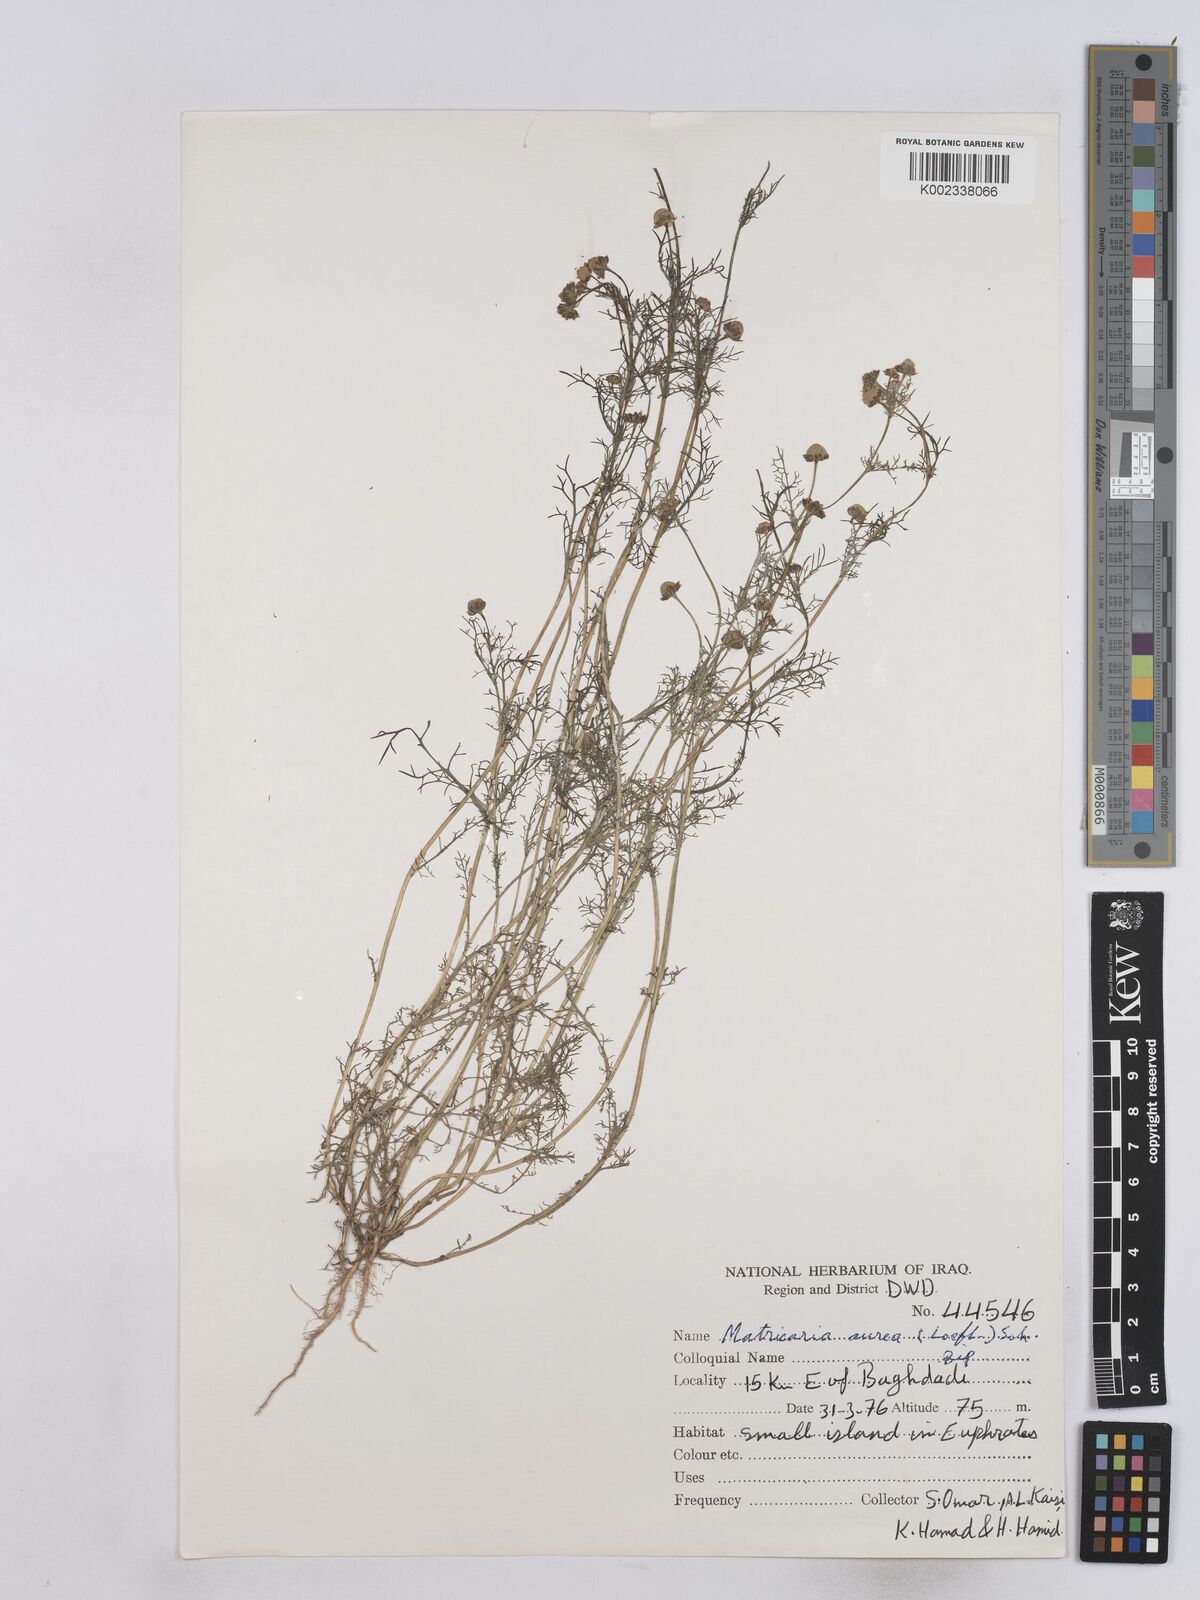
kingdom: Plantae
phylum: Tracheophyta
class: Magnoliopsida
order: Asterales
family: Asteraceae
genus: Matricaria
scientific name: Matricaria aurea
